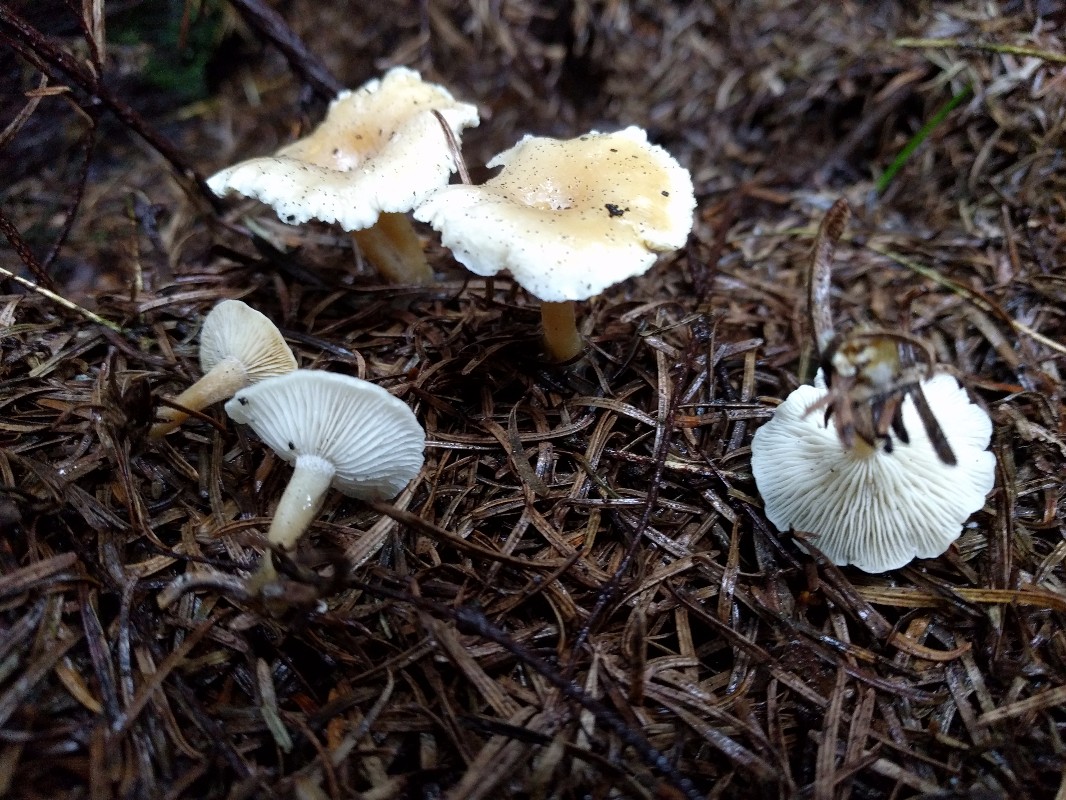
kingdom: Fungi
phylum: Basidiomycota
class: Agaricomycetes
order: Agaricales
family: Tricholomataceae
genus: Clitocybe
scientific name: Clitocybe
